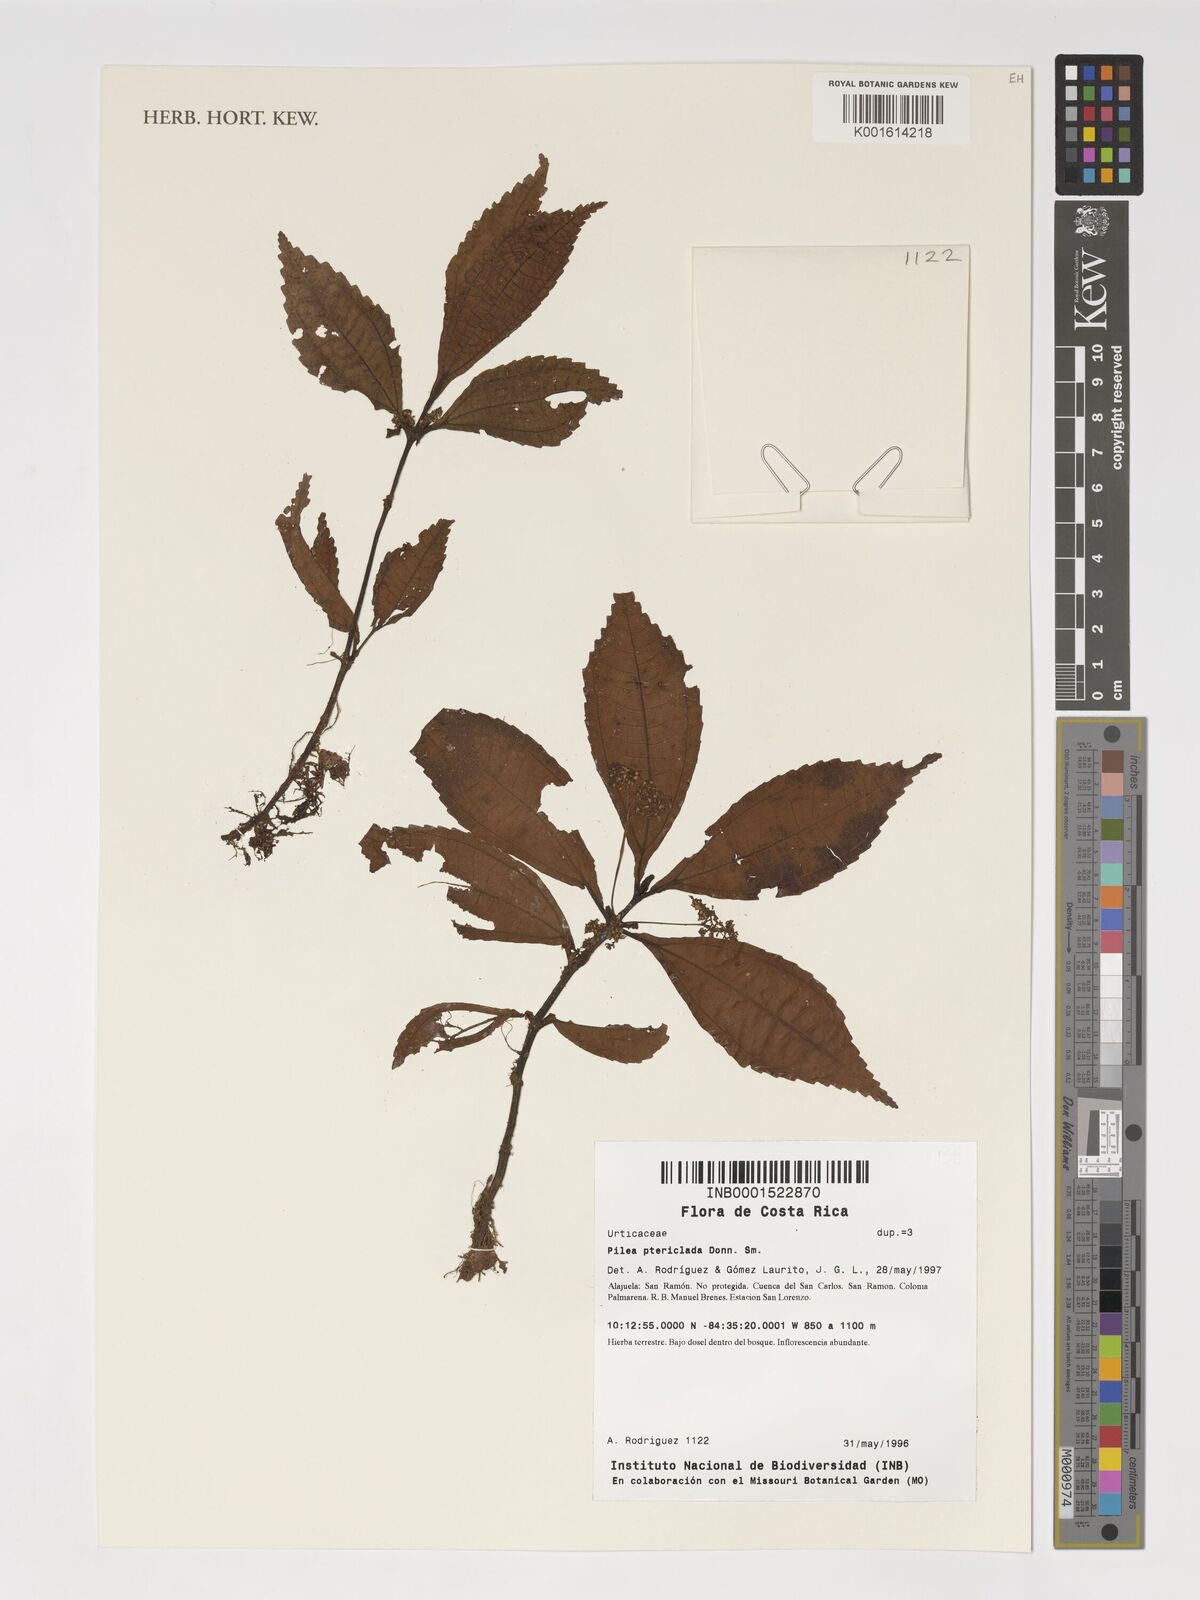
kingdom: Plantae
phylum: Tracheophyta
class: Magnoliopsida
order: Rosales
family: Urticaceae
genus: Pilea
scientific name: Pilea pteropodon
